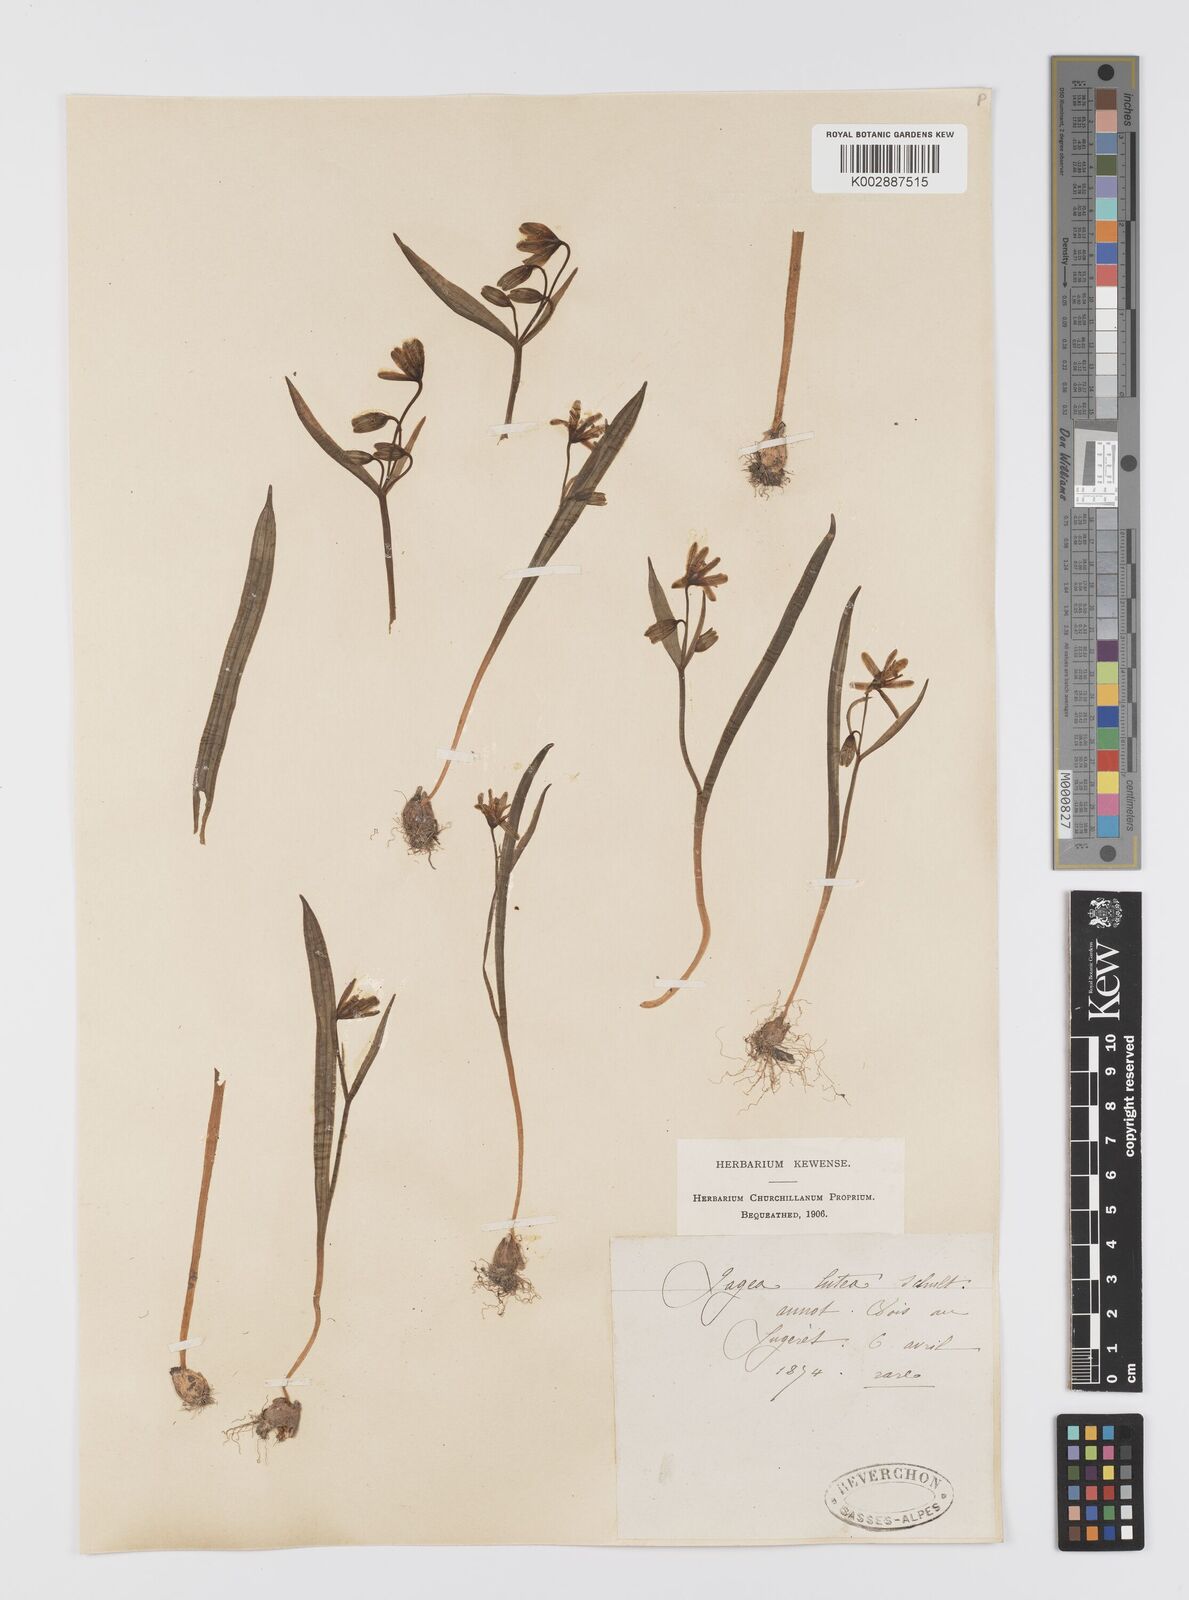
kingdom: Plantae
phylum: Tracheophyta
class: Liliopsida
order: Liliales
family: Liliaceae
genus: Gagea
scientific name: Gagea lutea
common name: Yellow star-of-bethlehem
